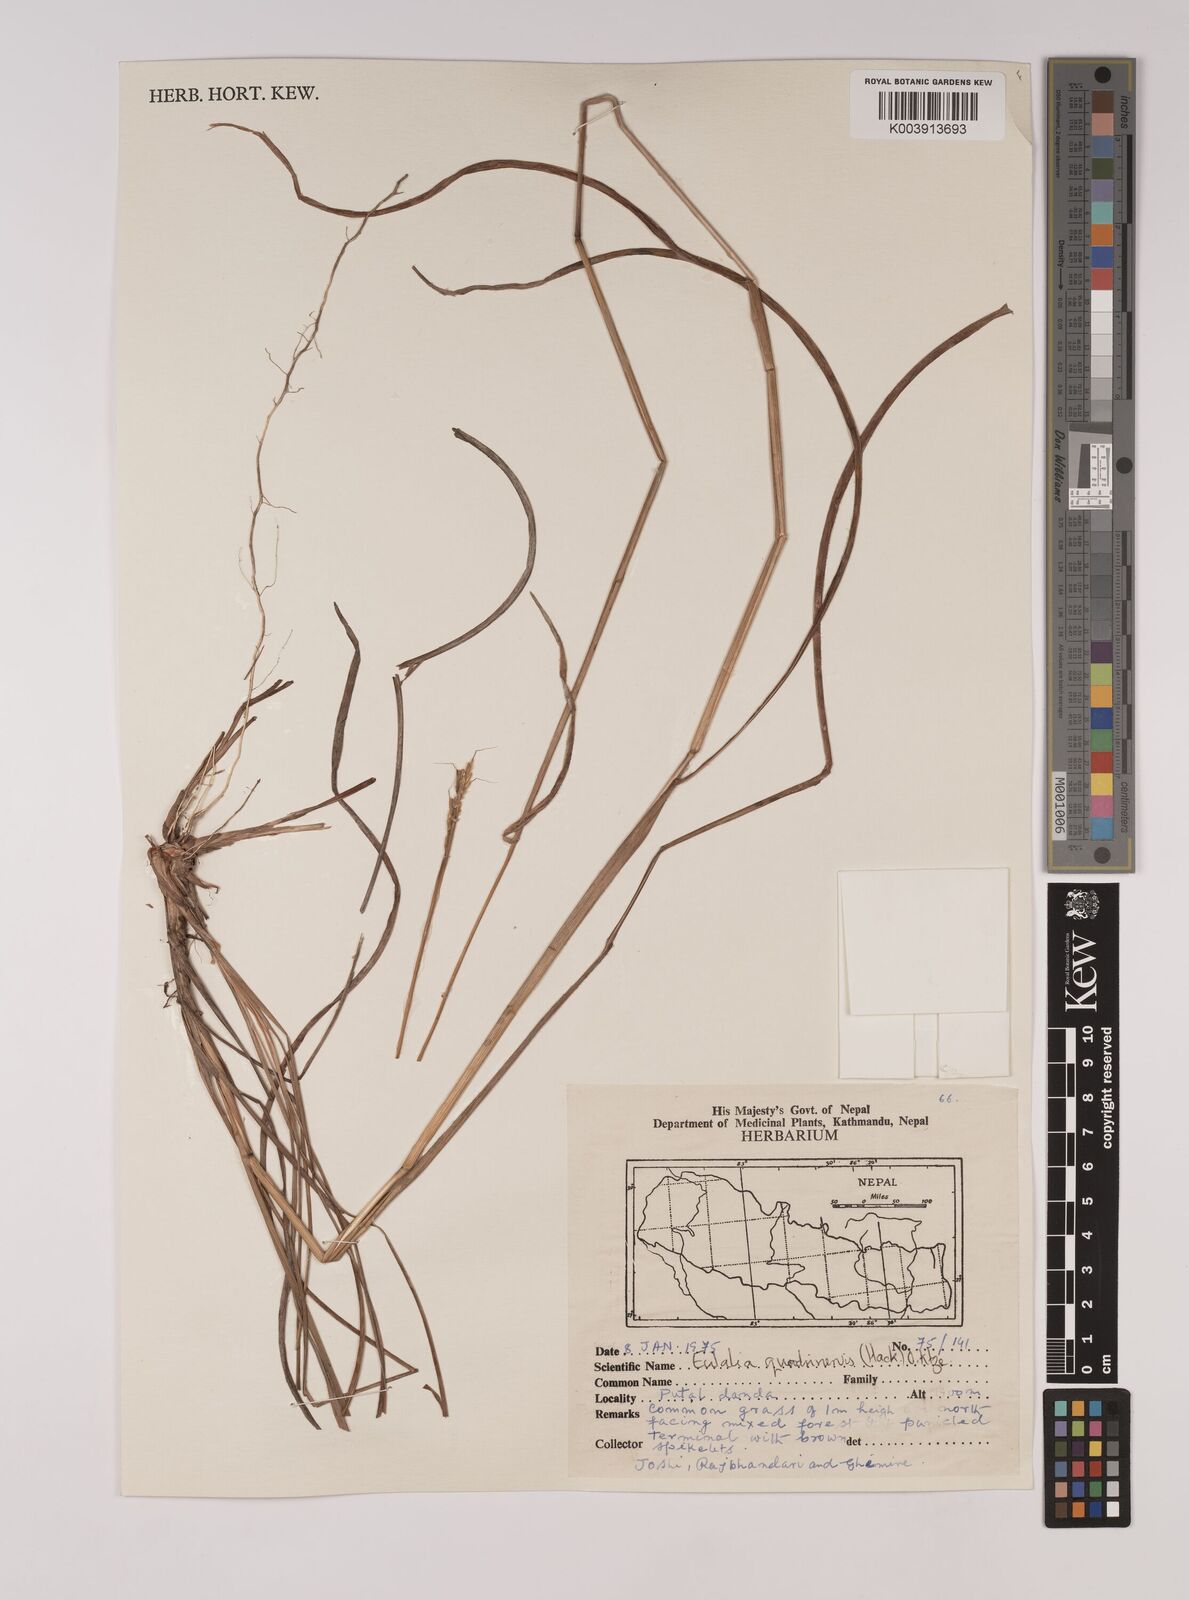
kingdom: Plantae
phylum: Tracheophyta
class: Liliopsida
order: Poales
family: Poaceae
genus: Pseudopogonatherum
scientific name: Pseudopogonatherum quadrinerve
